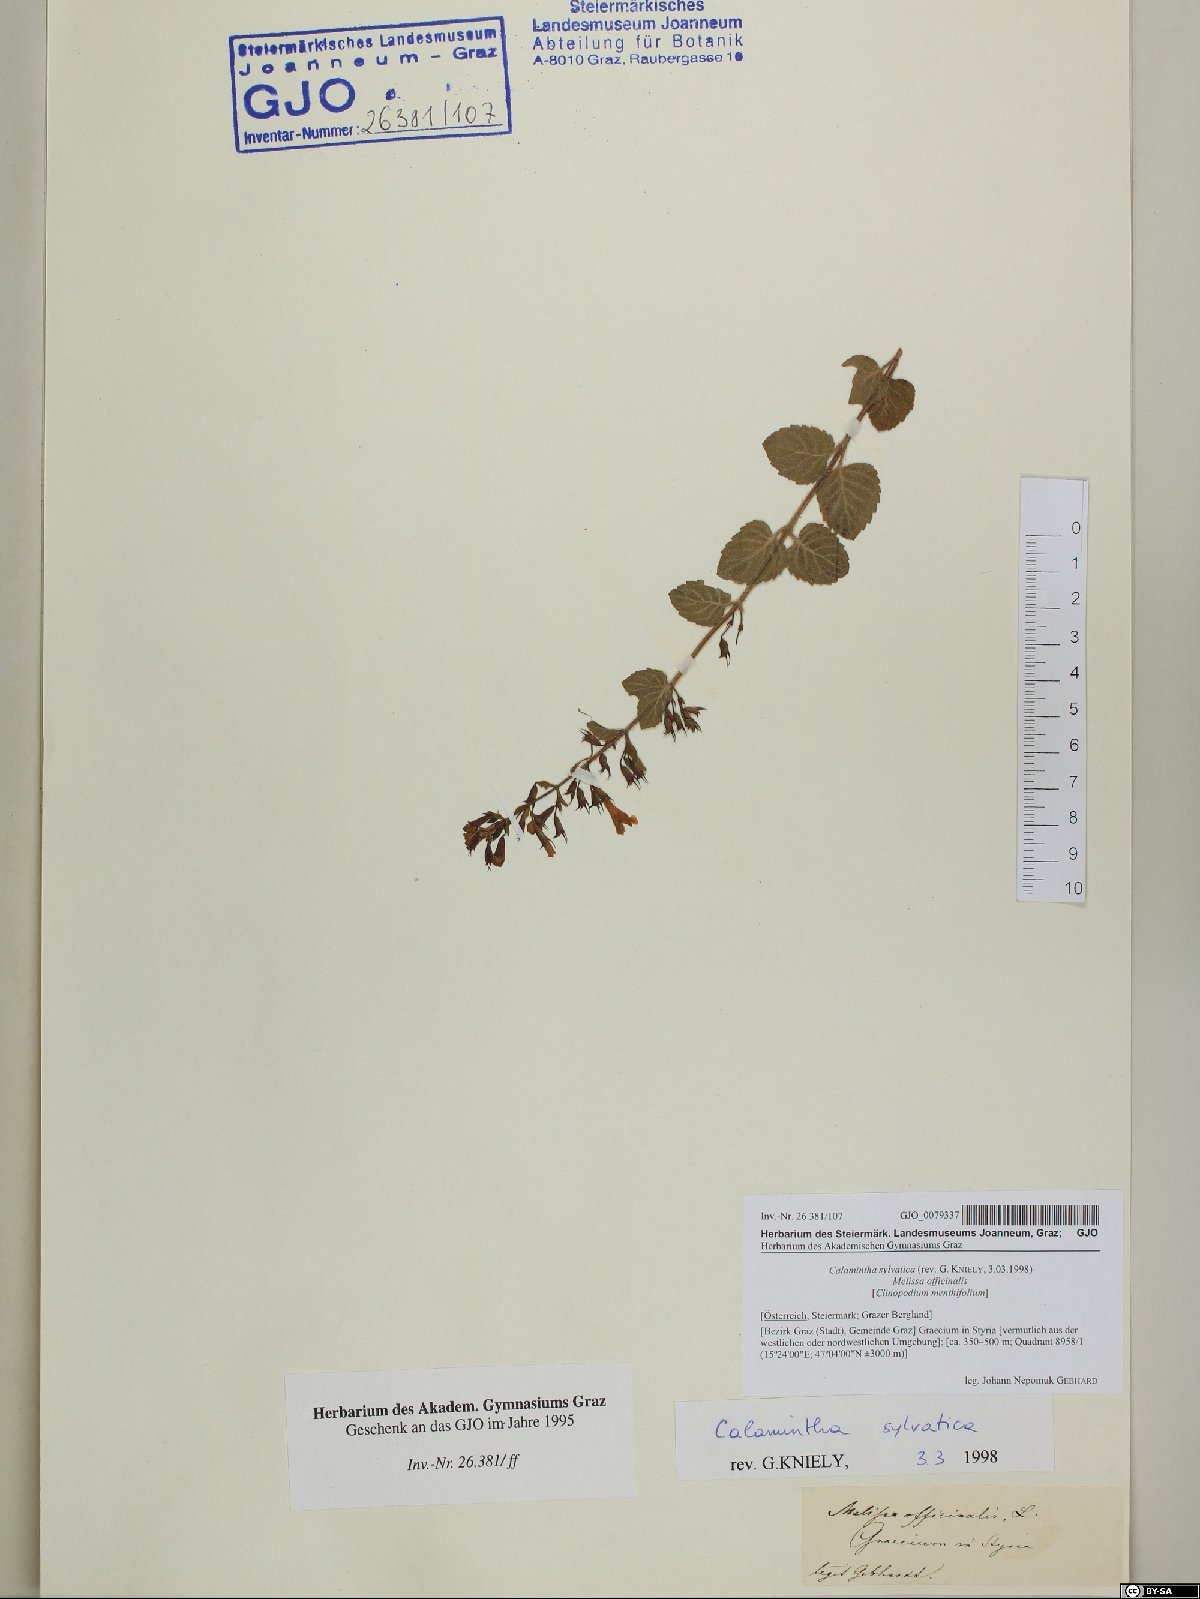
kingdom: Plantae
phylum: Tracheophyta
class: Magnoliopsida
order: Lamiales
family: Lamiaceae
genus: Clinopodium
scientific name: Clinopodium menthifolium
